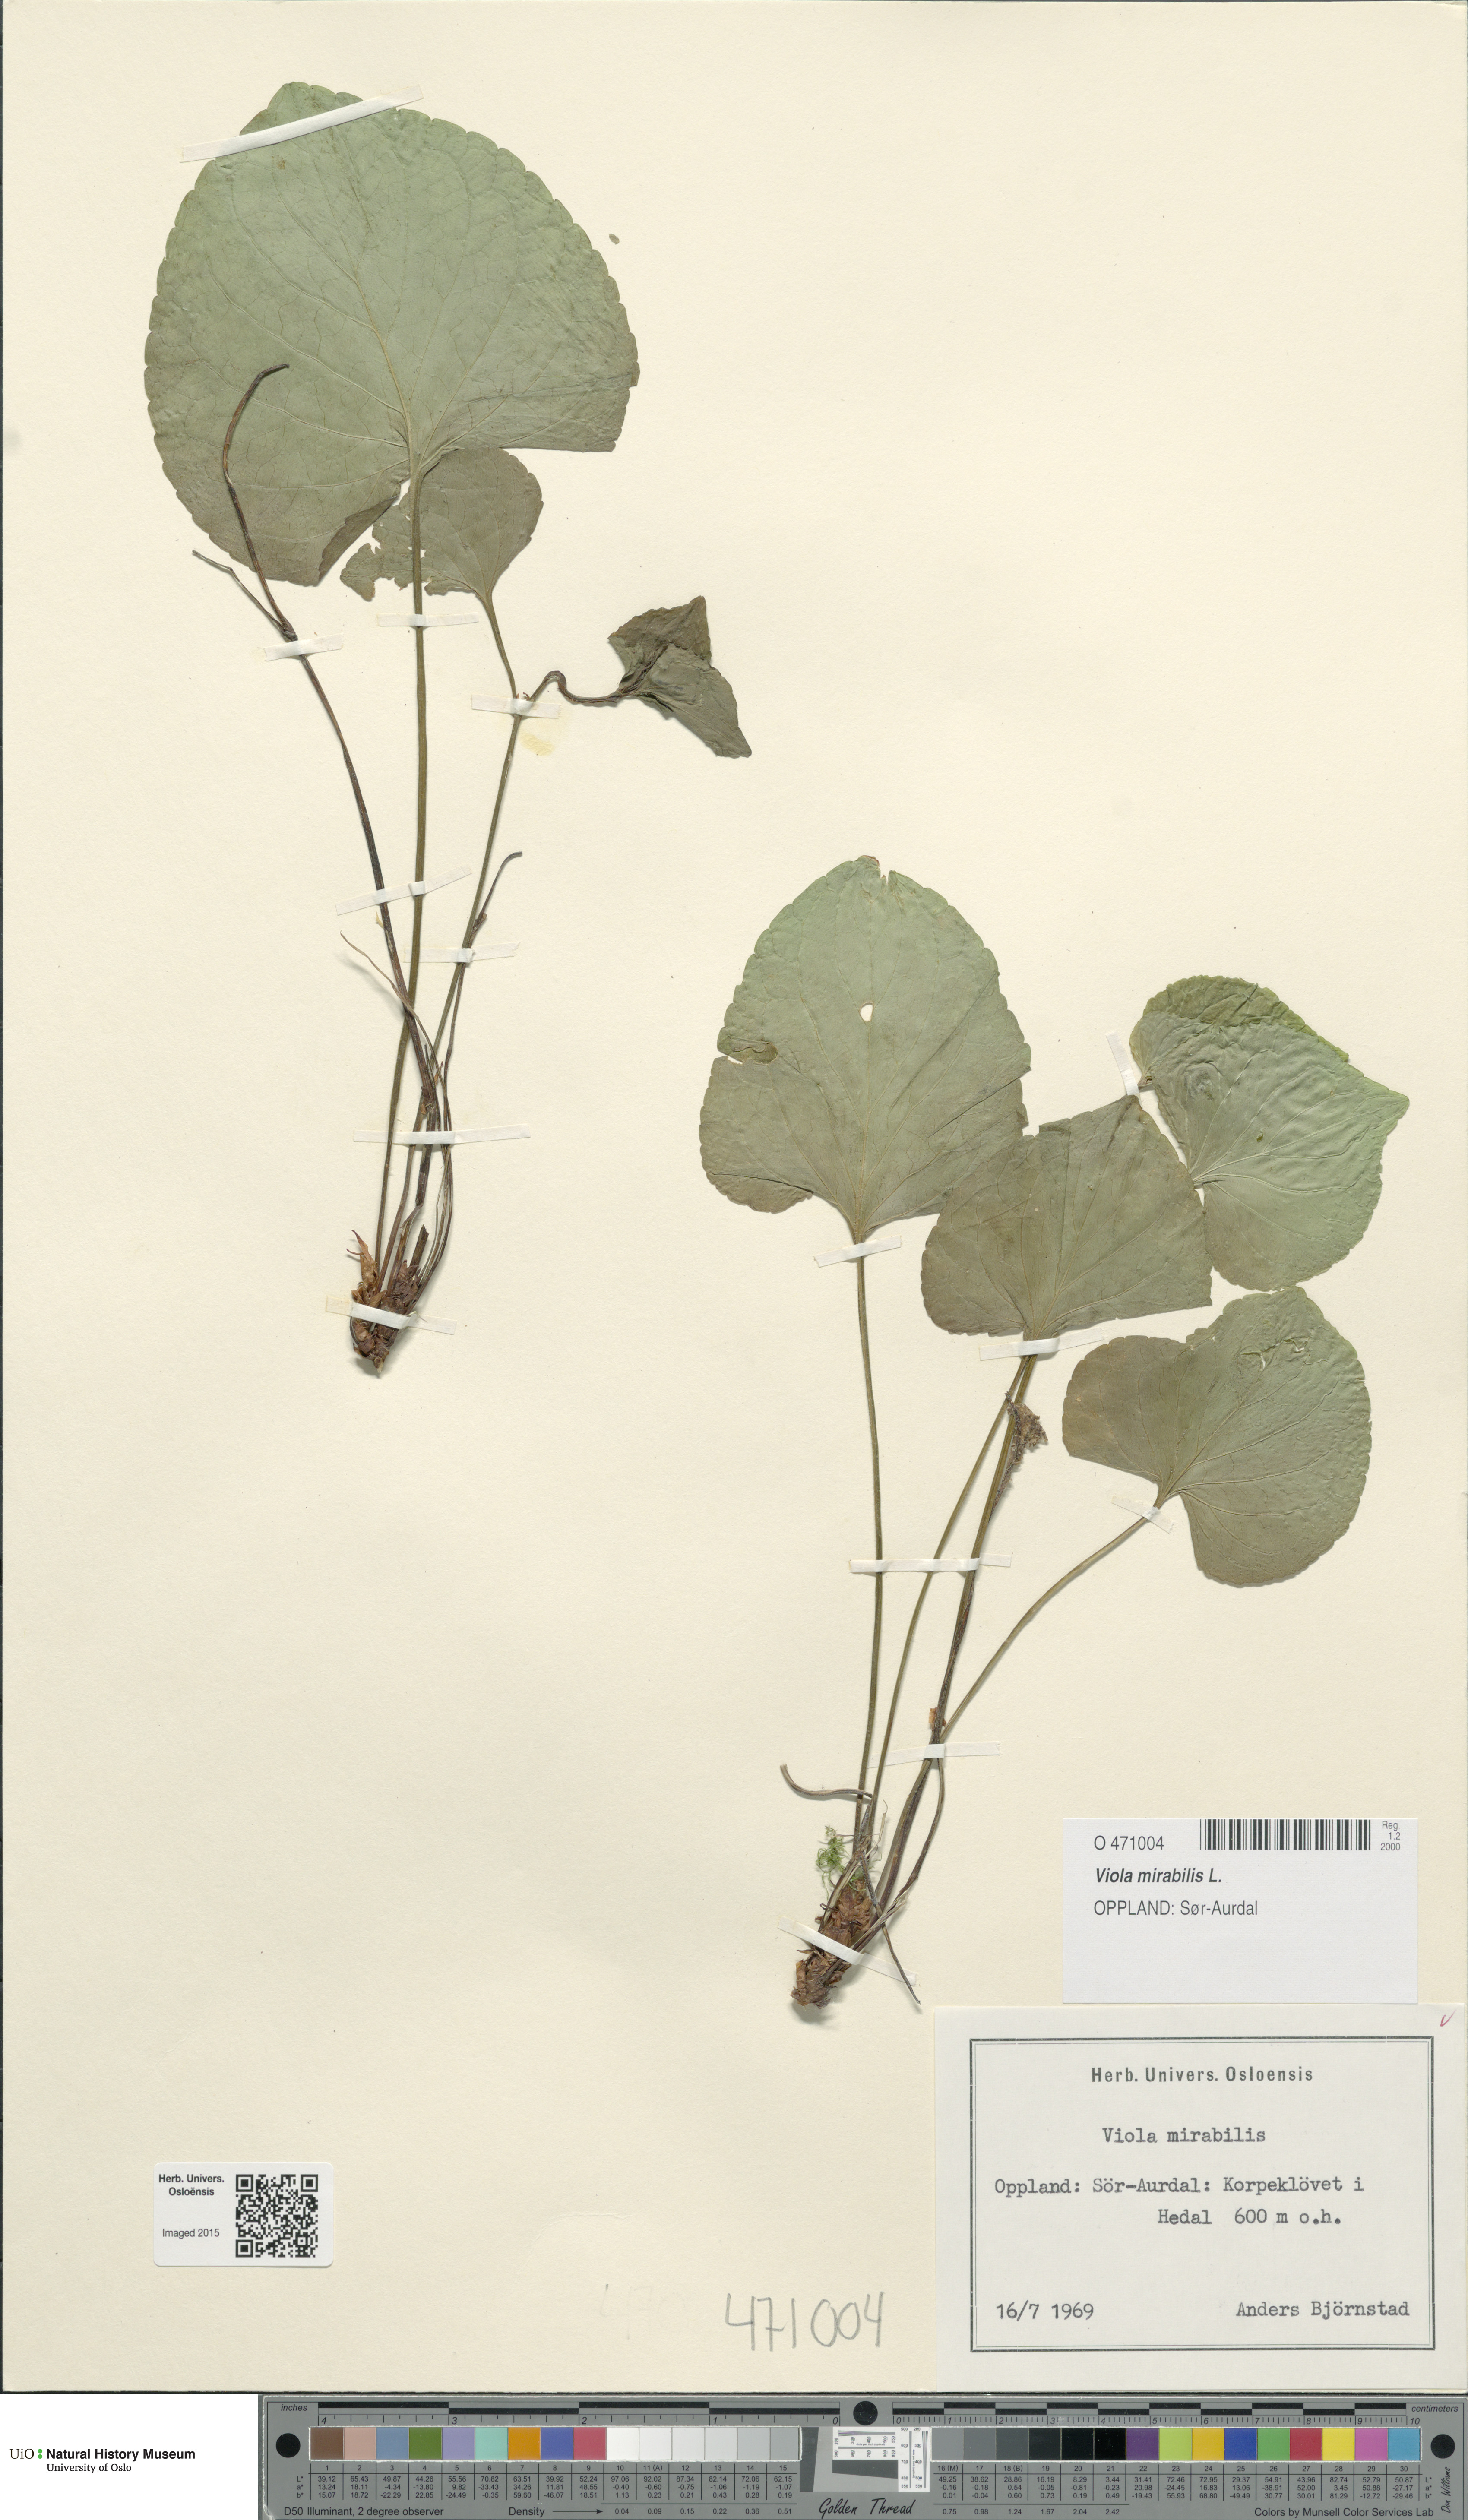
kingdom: Plantae
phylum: Tracheophyta
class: Magnoliopsida
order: Malpighiales
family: Violaceae
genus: Viola
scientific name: Viola mirabilis
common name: Wonder violet
